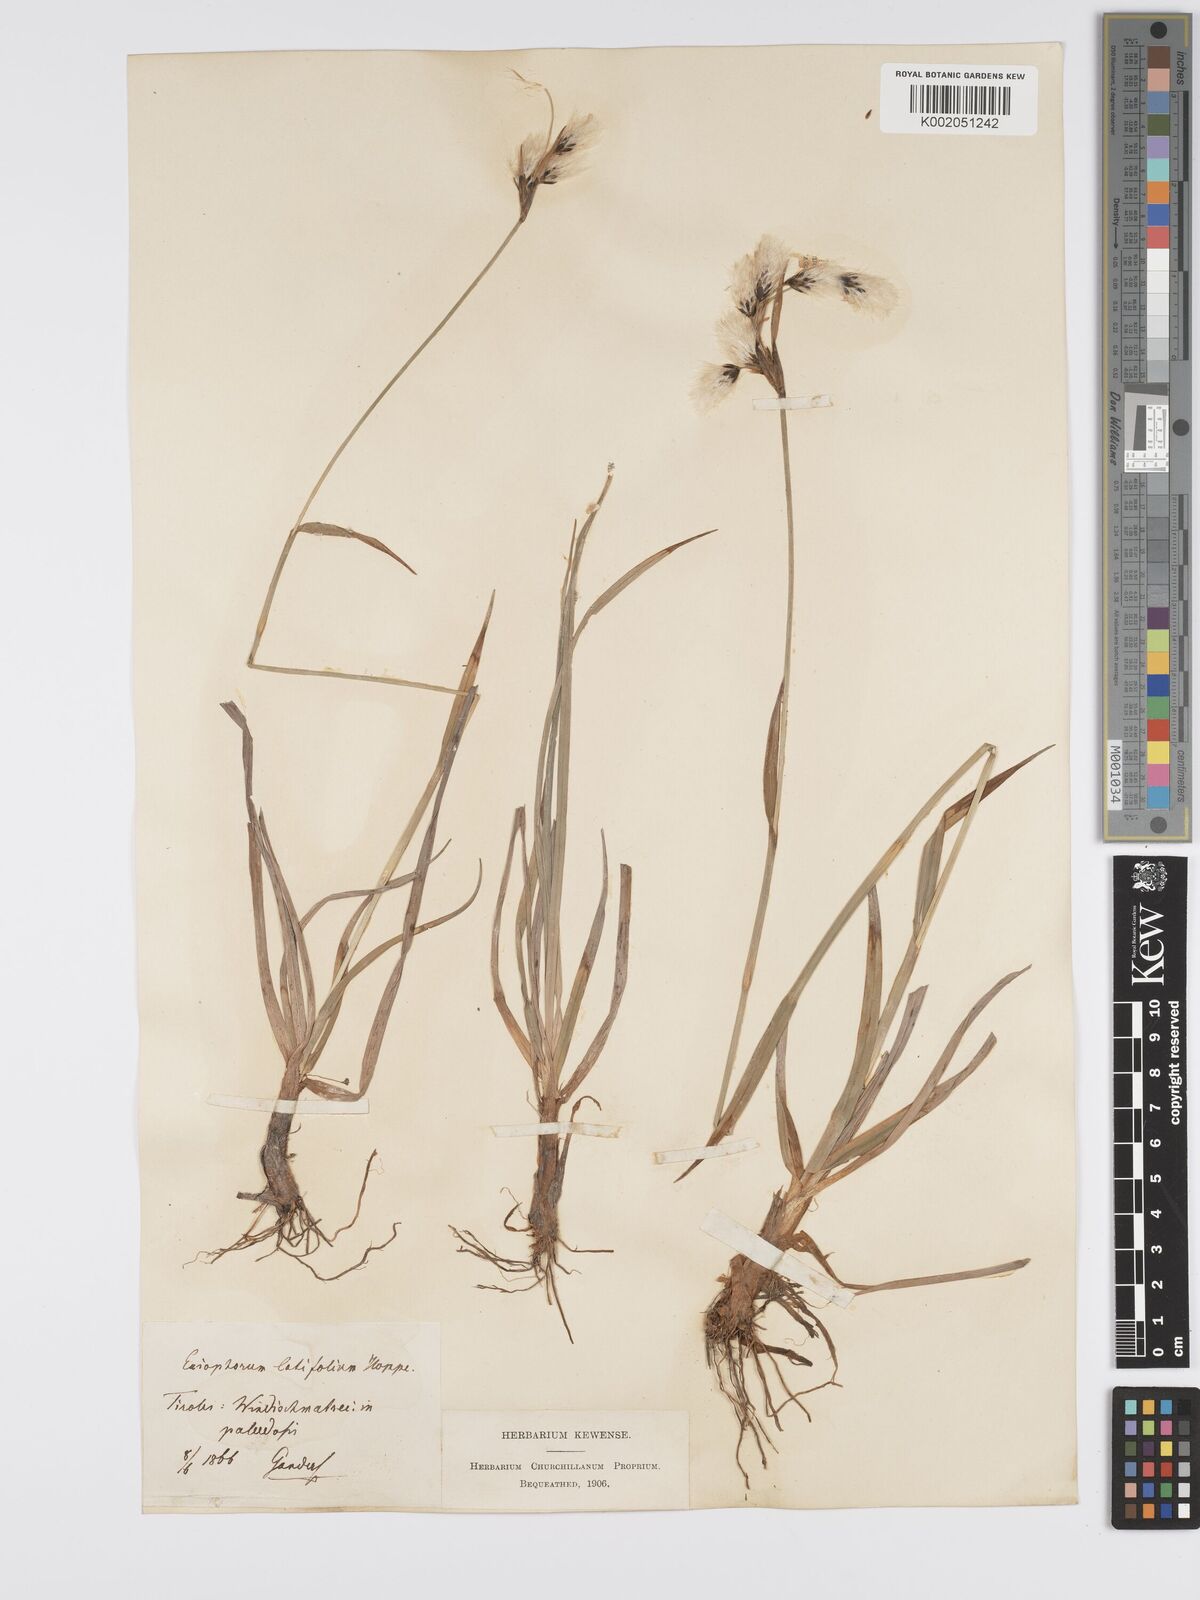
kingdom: Plantae
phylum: Tracheophyta
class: Liliopsida
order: Poales
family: Cyperaceae
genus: Eriophorum
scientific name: Eriophorum latifolium
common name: Broad-leaved cottongrass
